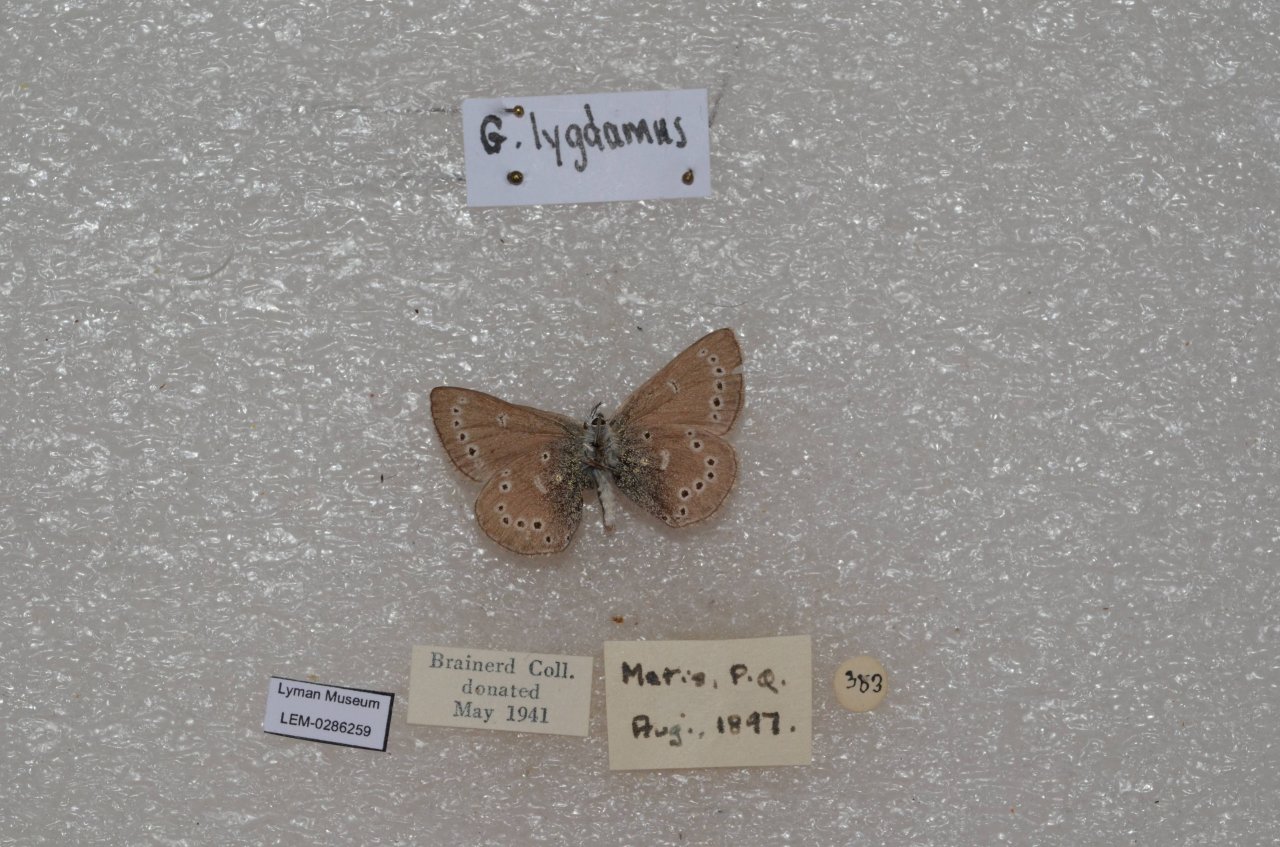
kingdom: Animalia
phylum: Arthropoda
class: Insecta
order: Lepidoptera
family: Lycaenidae
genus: Glaucopsyche
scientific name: Glaucopsyche lygdamus
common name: Silvery Blue
